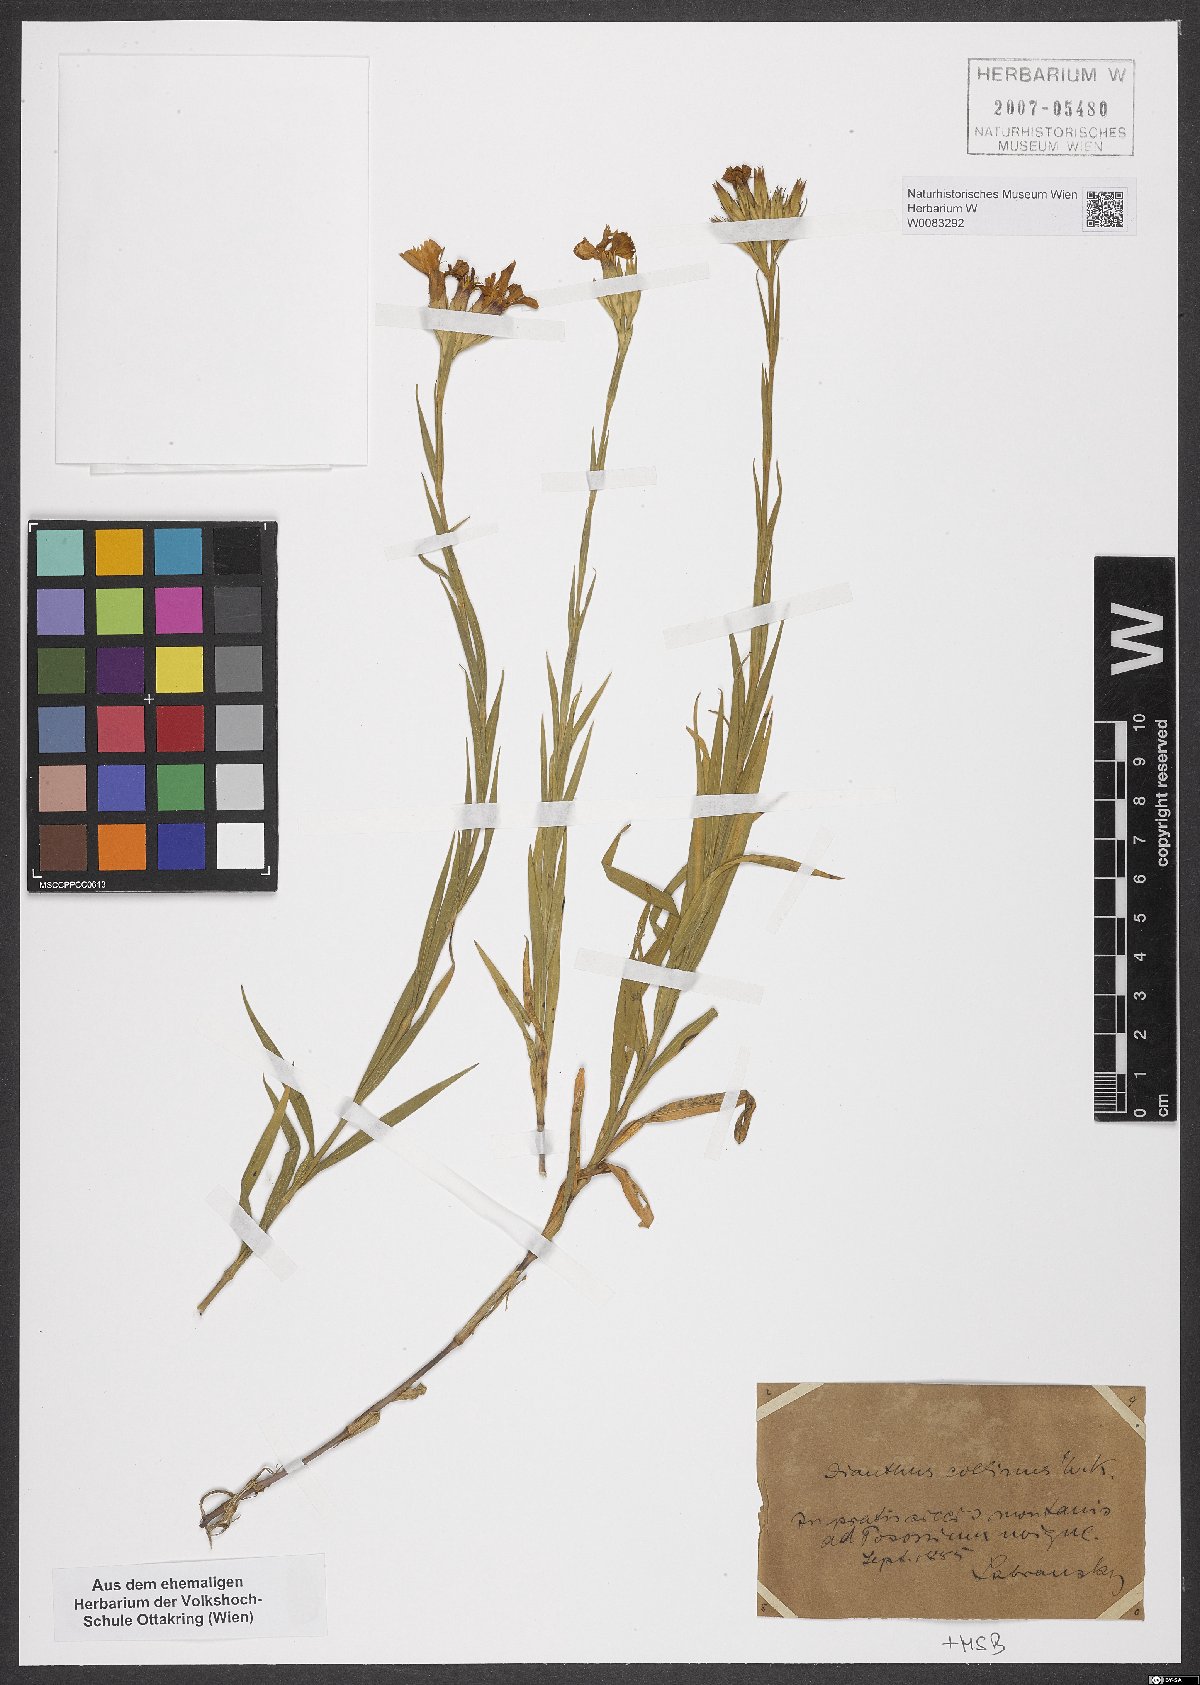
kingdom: Plantae
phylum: Tracheophyta
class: Magnoliopsida
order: Caryophyllales
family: Caryophyllaceae
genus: Dianthus
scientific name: Dianthus collinus
